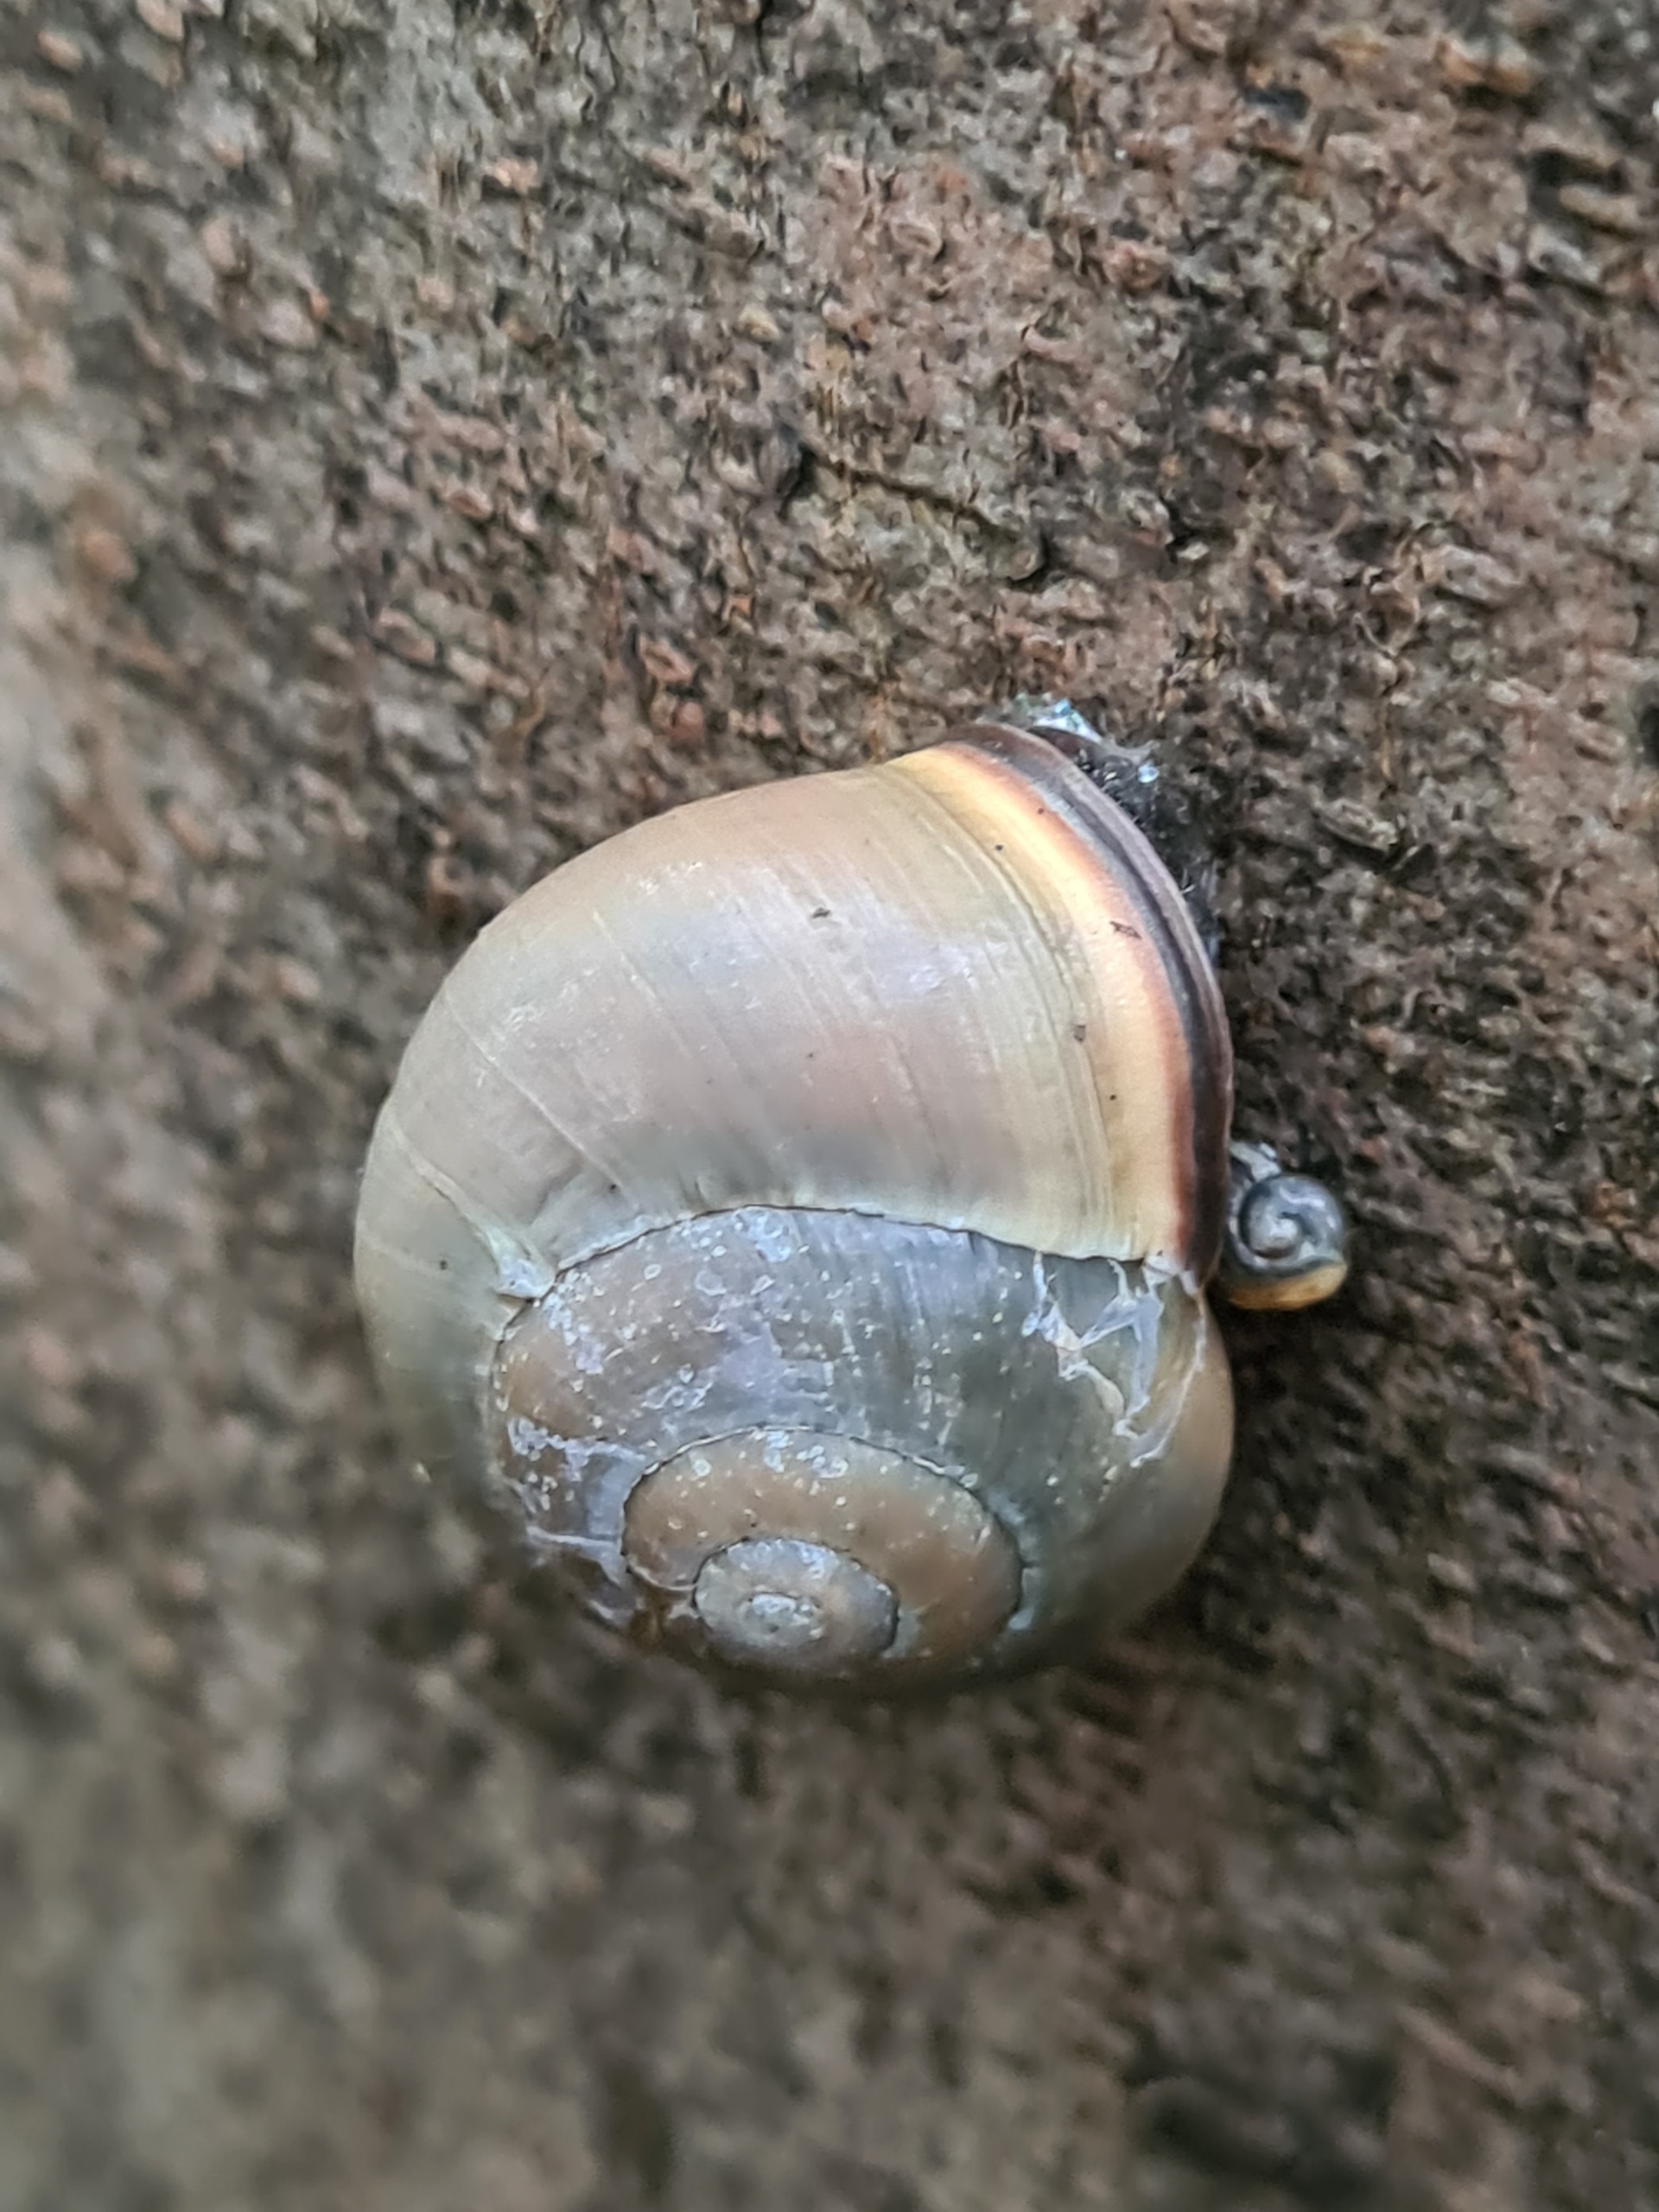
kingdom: Animalia
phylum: Mollusca
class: Gastropoda
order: Stylommatophora
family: Helicidae
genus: Cepaea
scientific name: Cepaea nemoralis
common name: Lundsnegl
